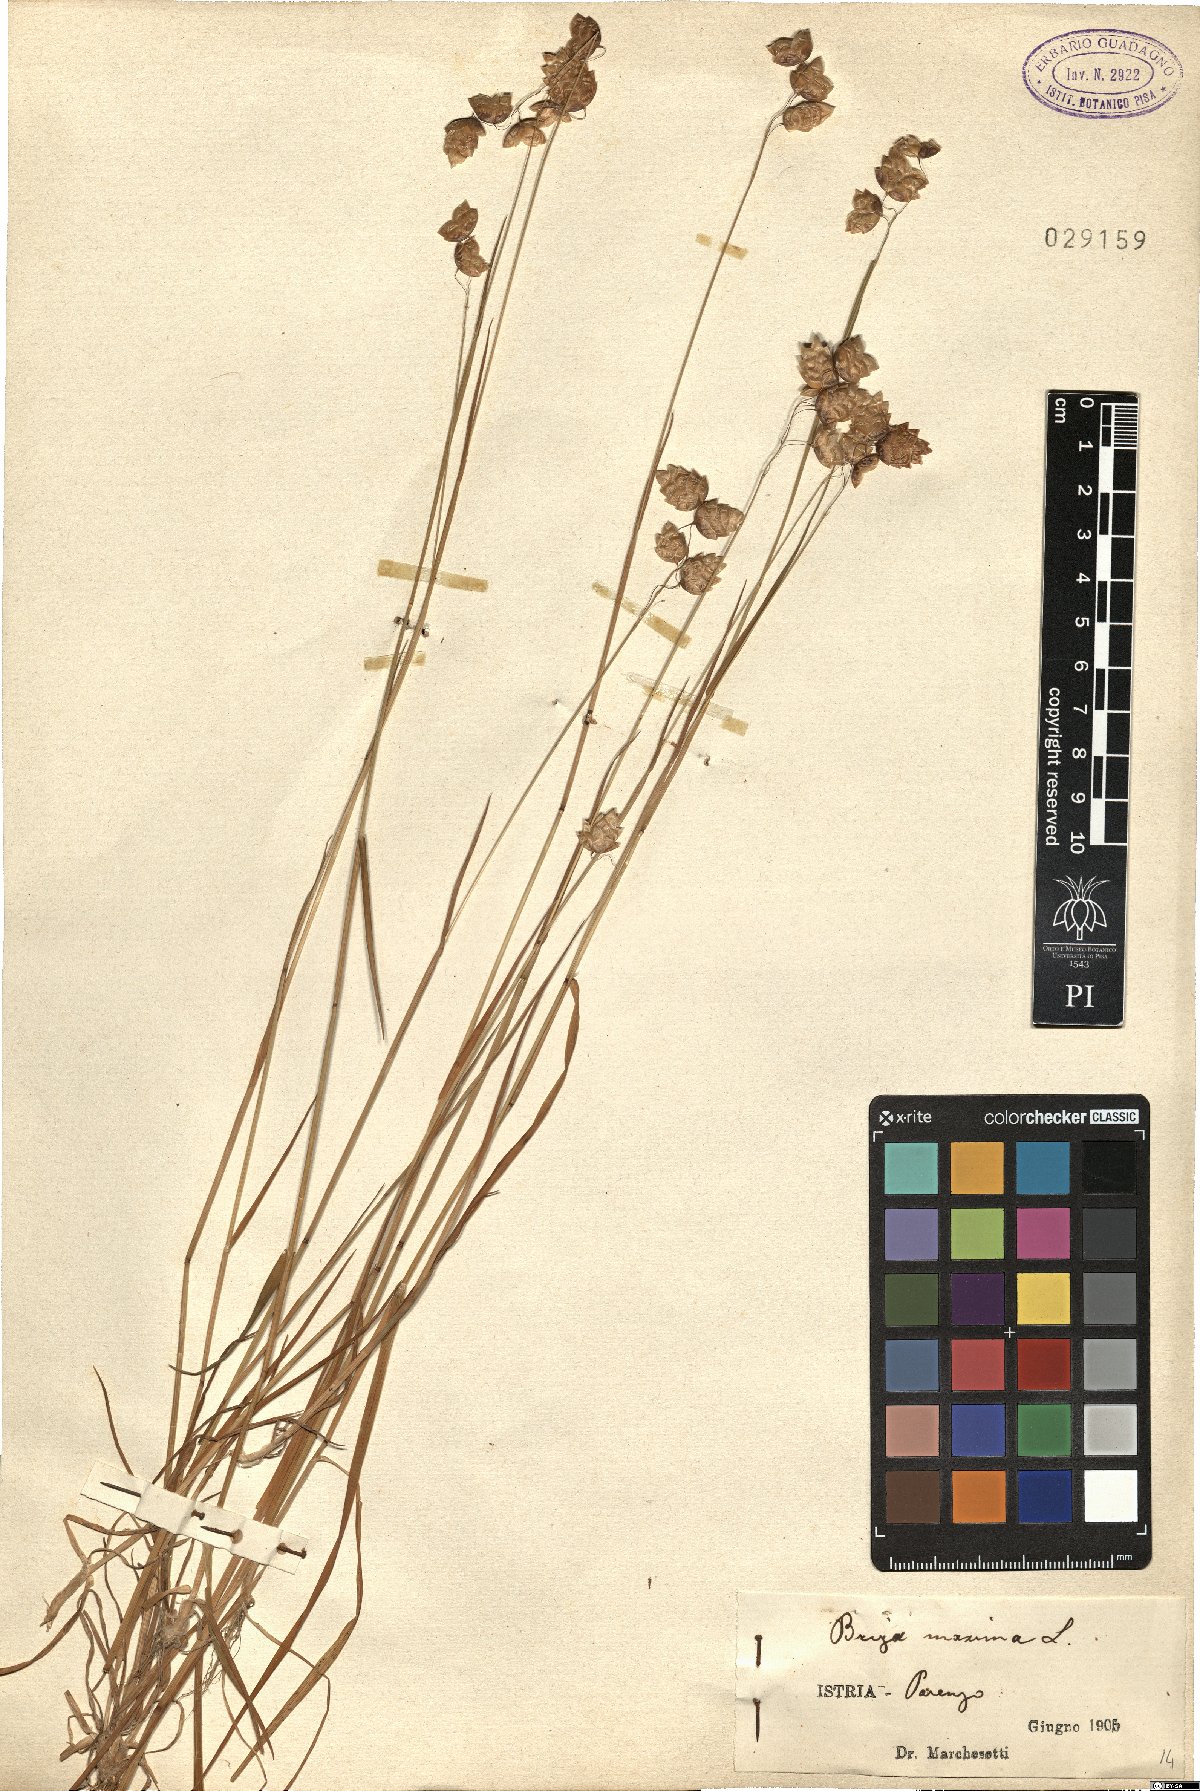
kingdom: Plantae
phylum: Tracheophyta
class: Liliopsida
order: Poales
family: Poaceae
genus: Briza
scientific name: Briza maxima
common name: Big quakinggrass
